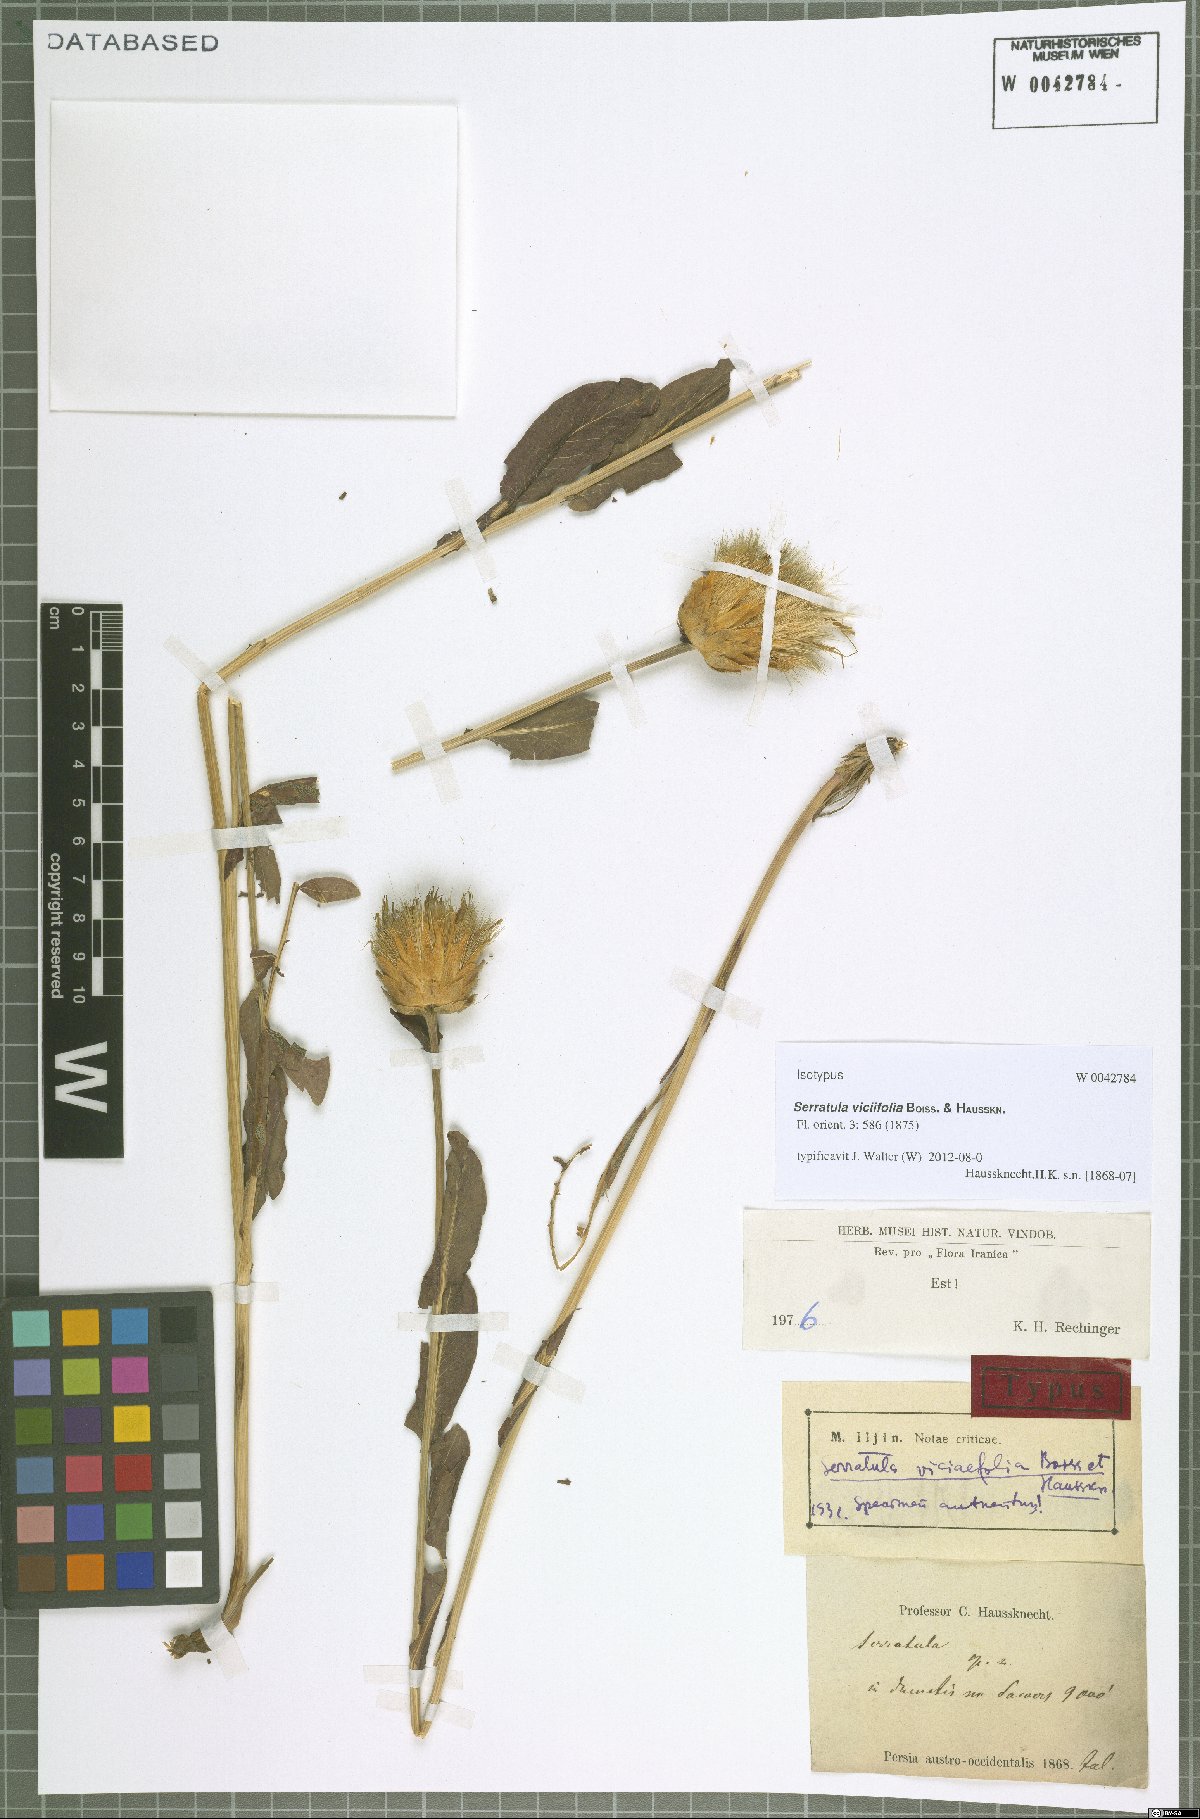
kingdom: Plantae
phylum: Tracheophyta
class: Magnoliopsida
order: Asterales
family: Asteraceae
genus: Klasea
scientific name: Klasea viciifolia
